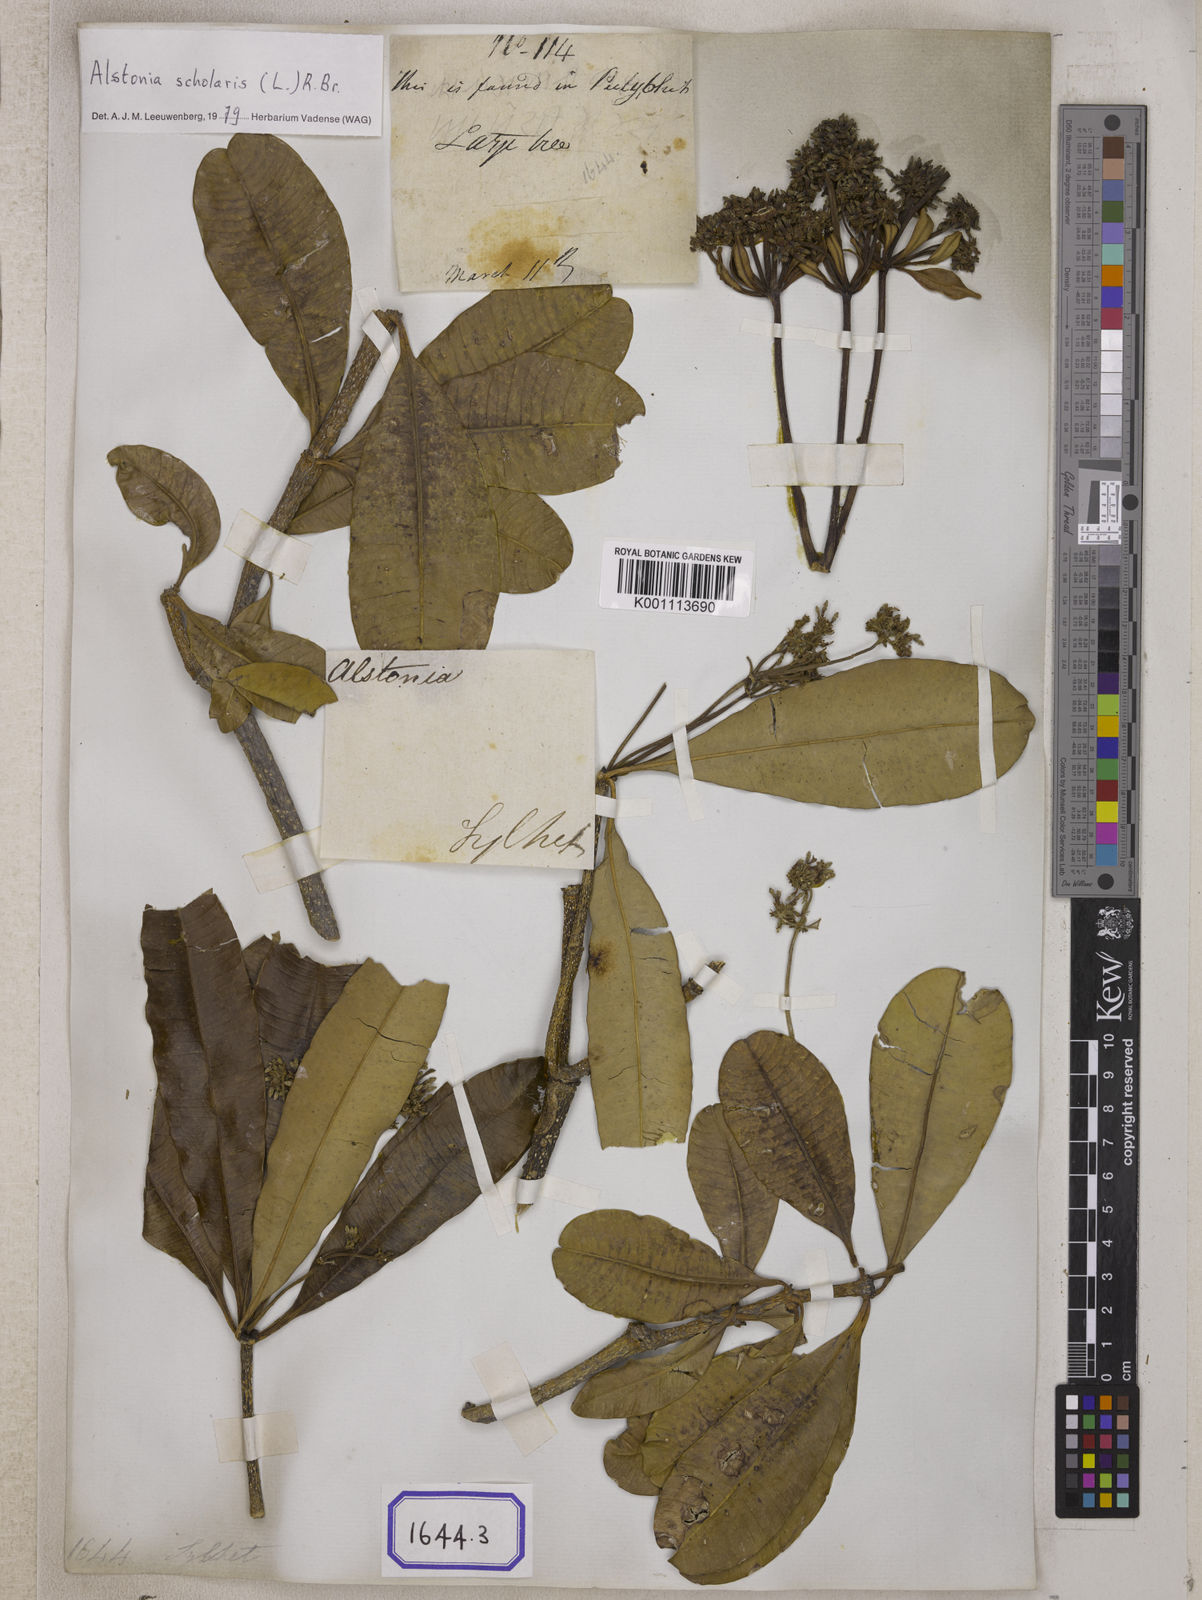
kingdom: Plantae
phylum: Tracheophyta
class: Magnoliopsida
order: Gentianales
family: Apocynaceae
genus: Alstonia
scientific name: Alstonia scholaris
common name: White cheesewood
